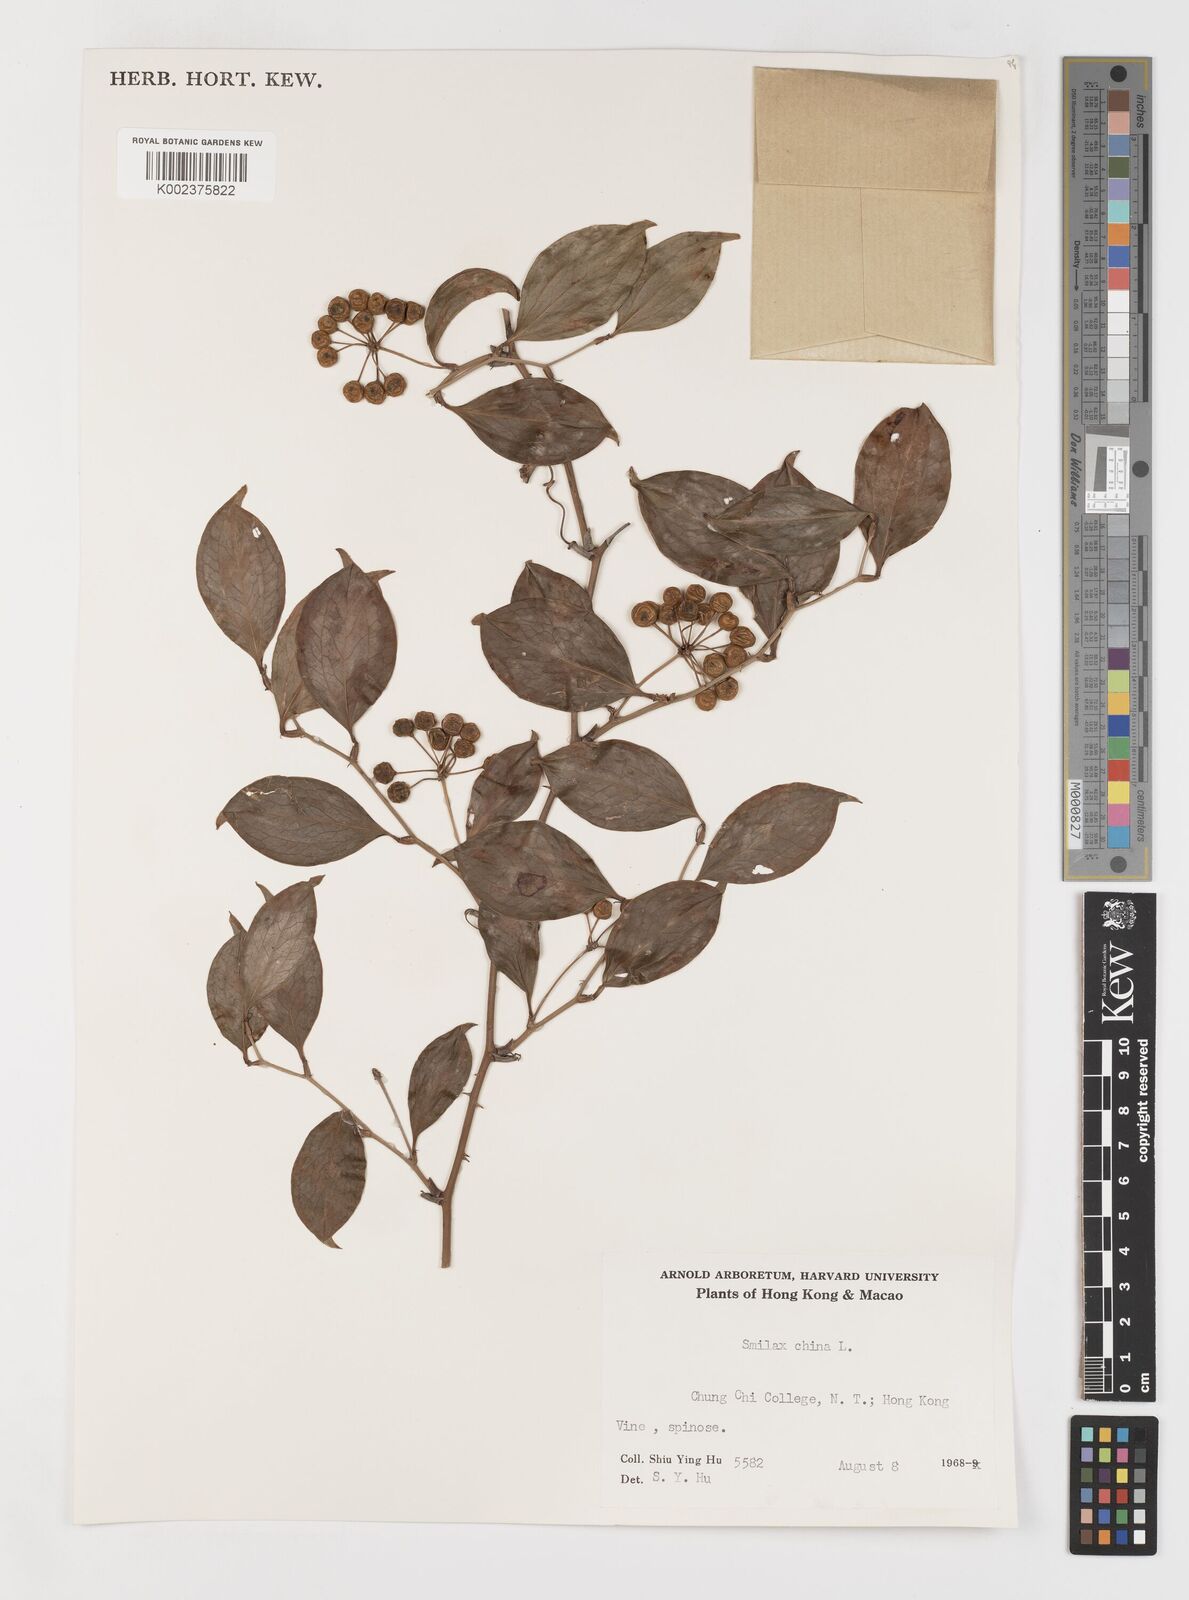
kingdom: Plantae
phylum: Tracheophyta
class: Liliopsida
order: Liliales
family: Smilacaceae
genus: Smilax
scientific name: Smilax china
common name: Chinaroot
